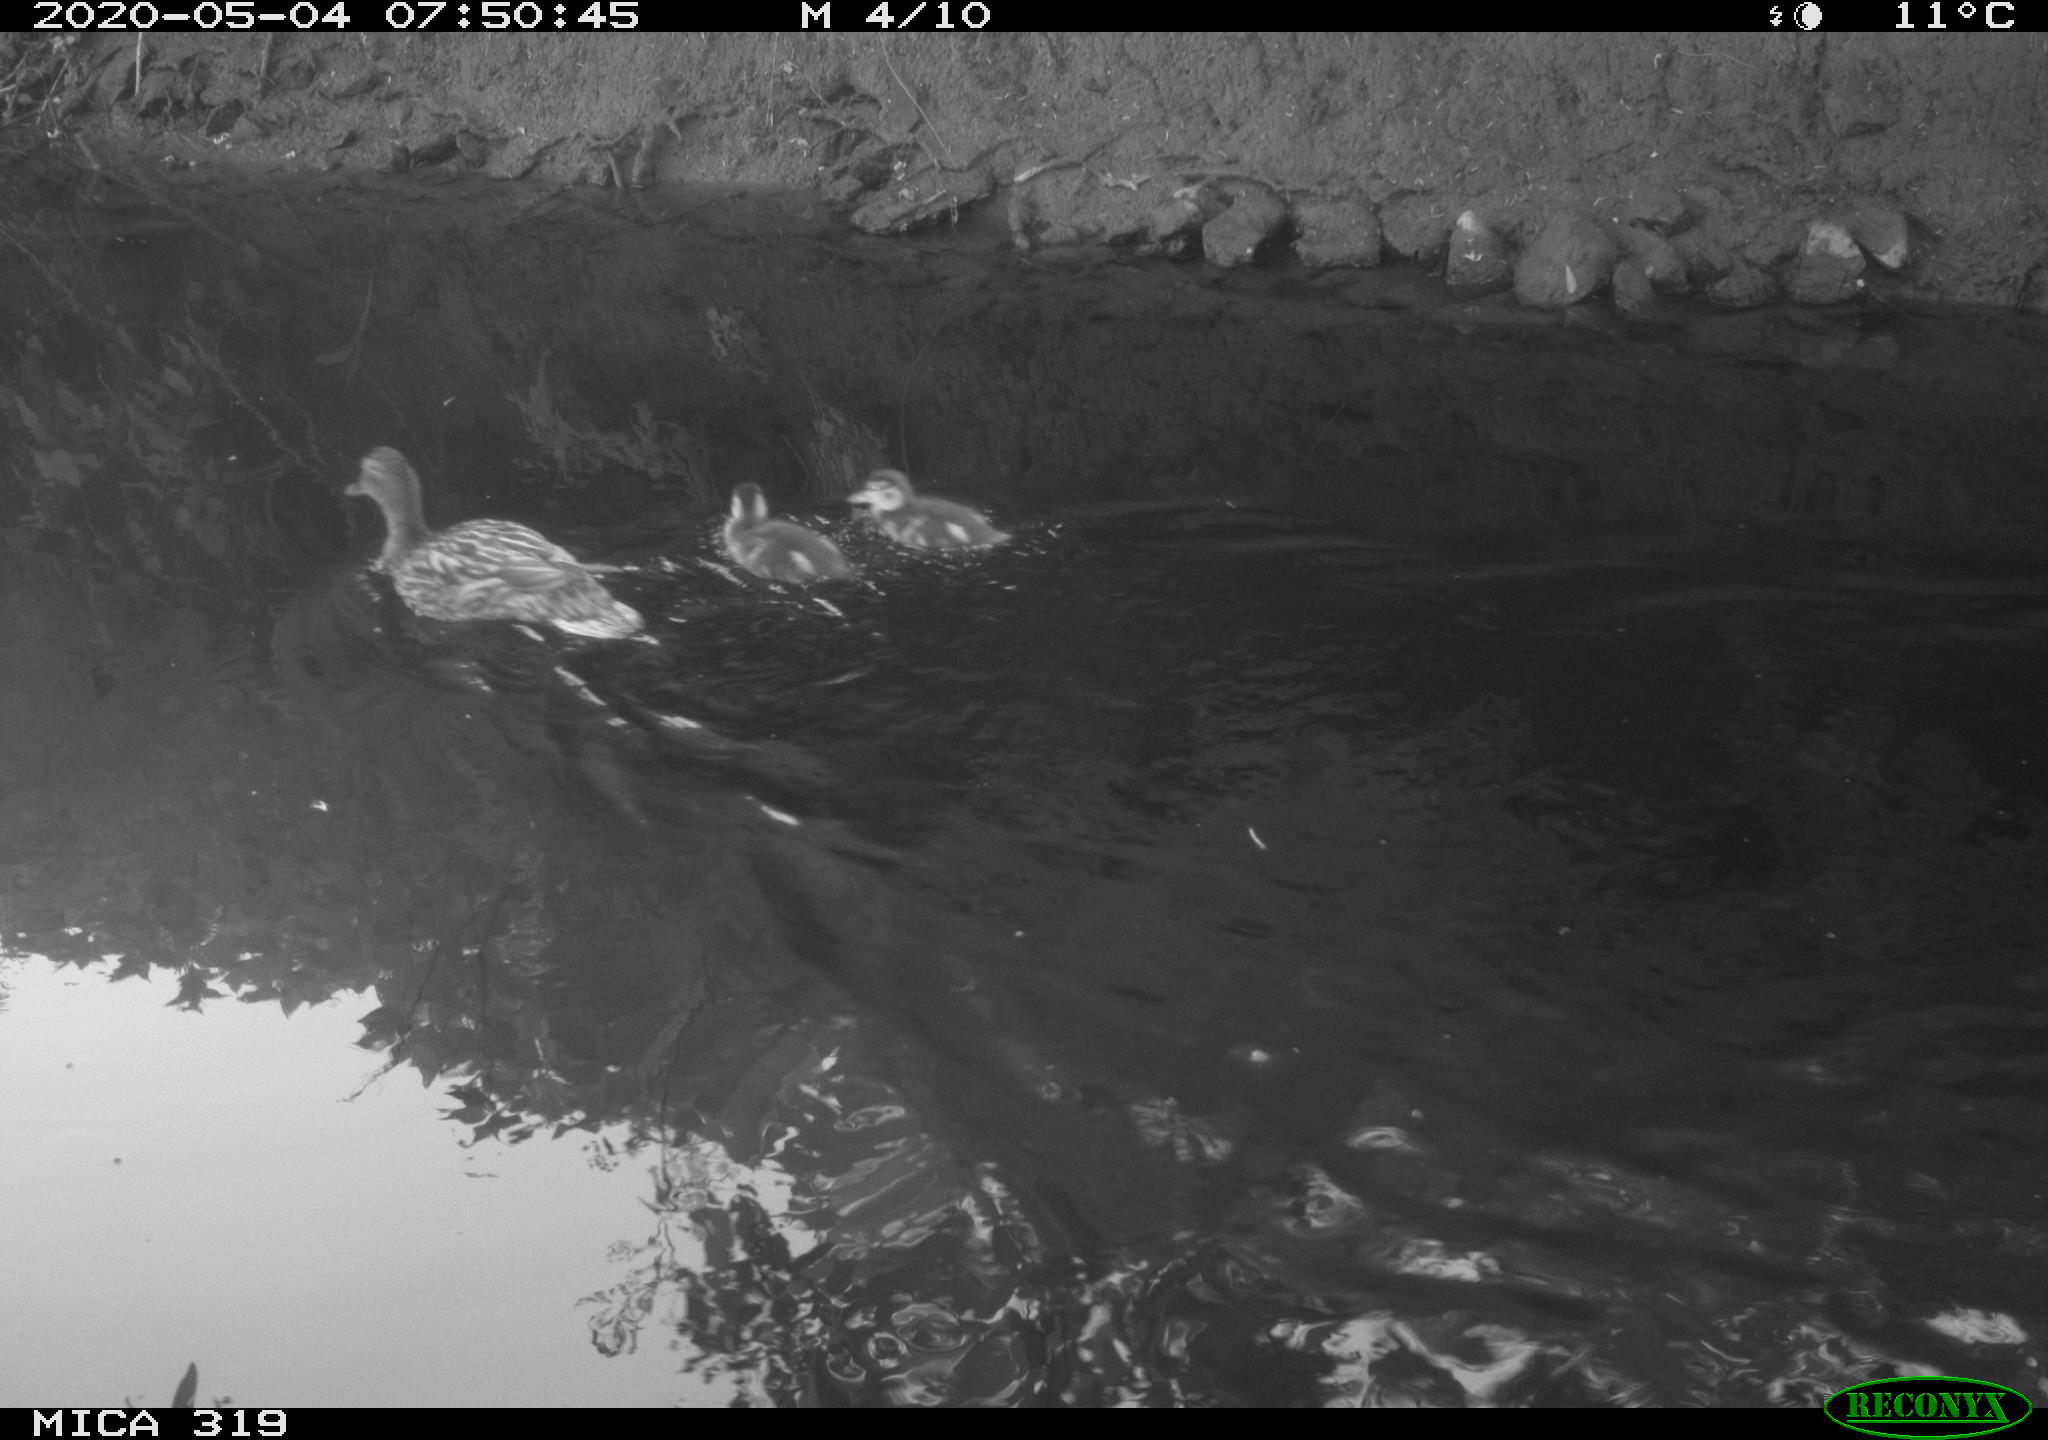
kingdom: Animalia
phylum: Chordata
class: Aves
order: Anseriformes
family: Anatidae
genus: Anas
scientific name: Anas platyrhynchos
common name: Mallard
